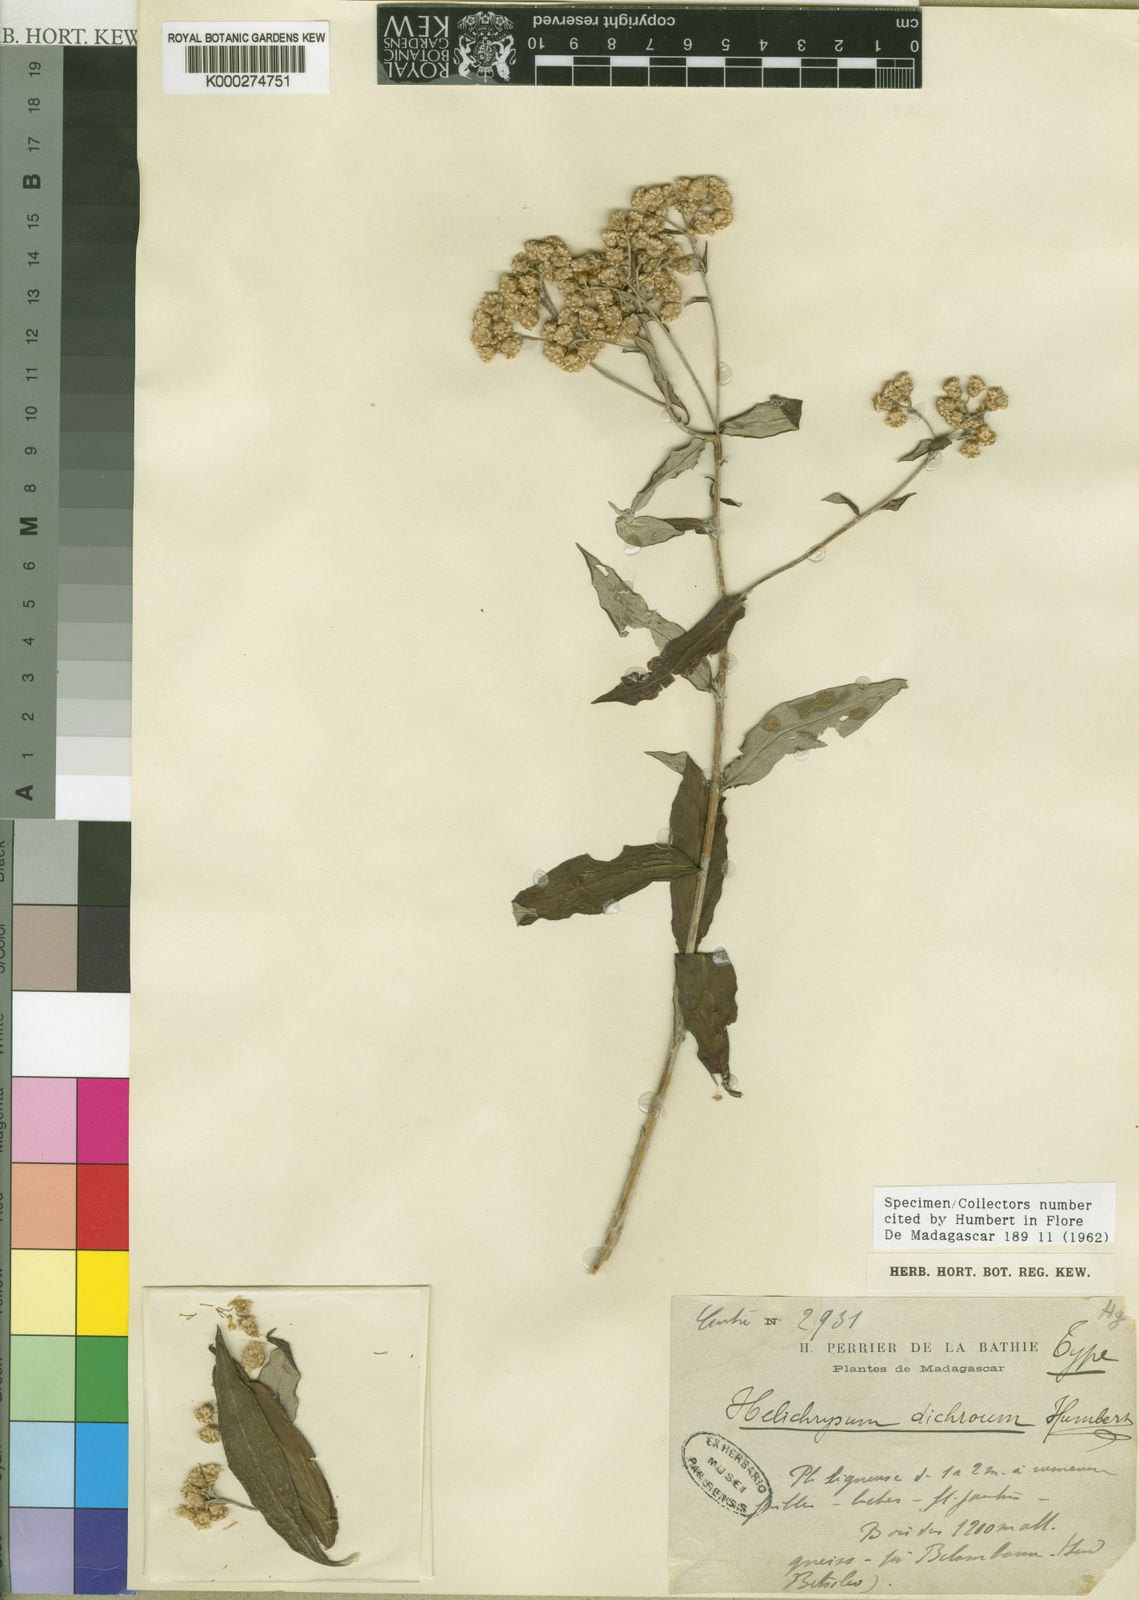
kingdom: Plantae
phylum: Tracheophyta
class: Magnoliopsida
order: Asterales
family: Asteraceae
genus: Helichrysum
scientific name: Helichrysum dichroum
